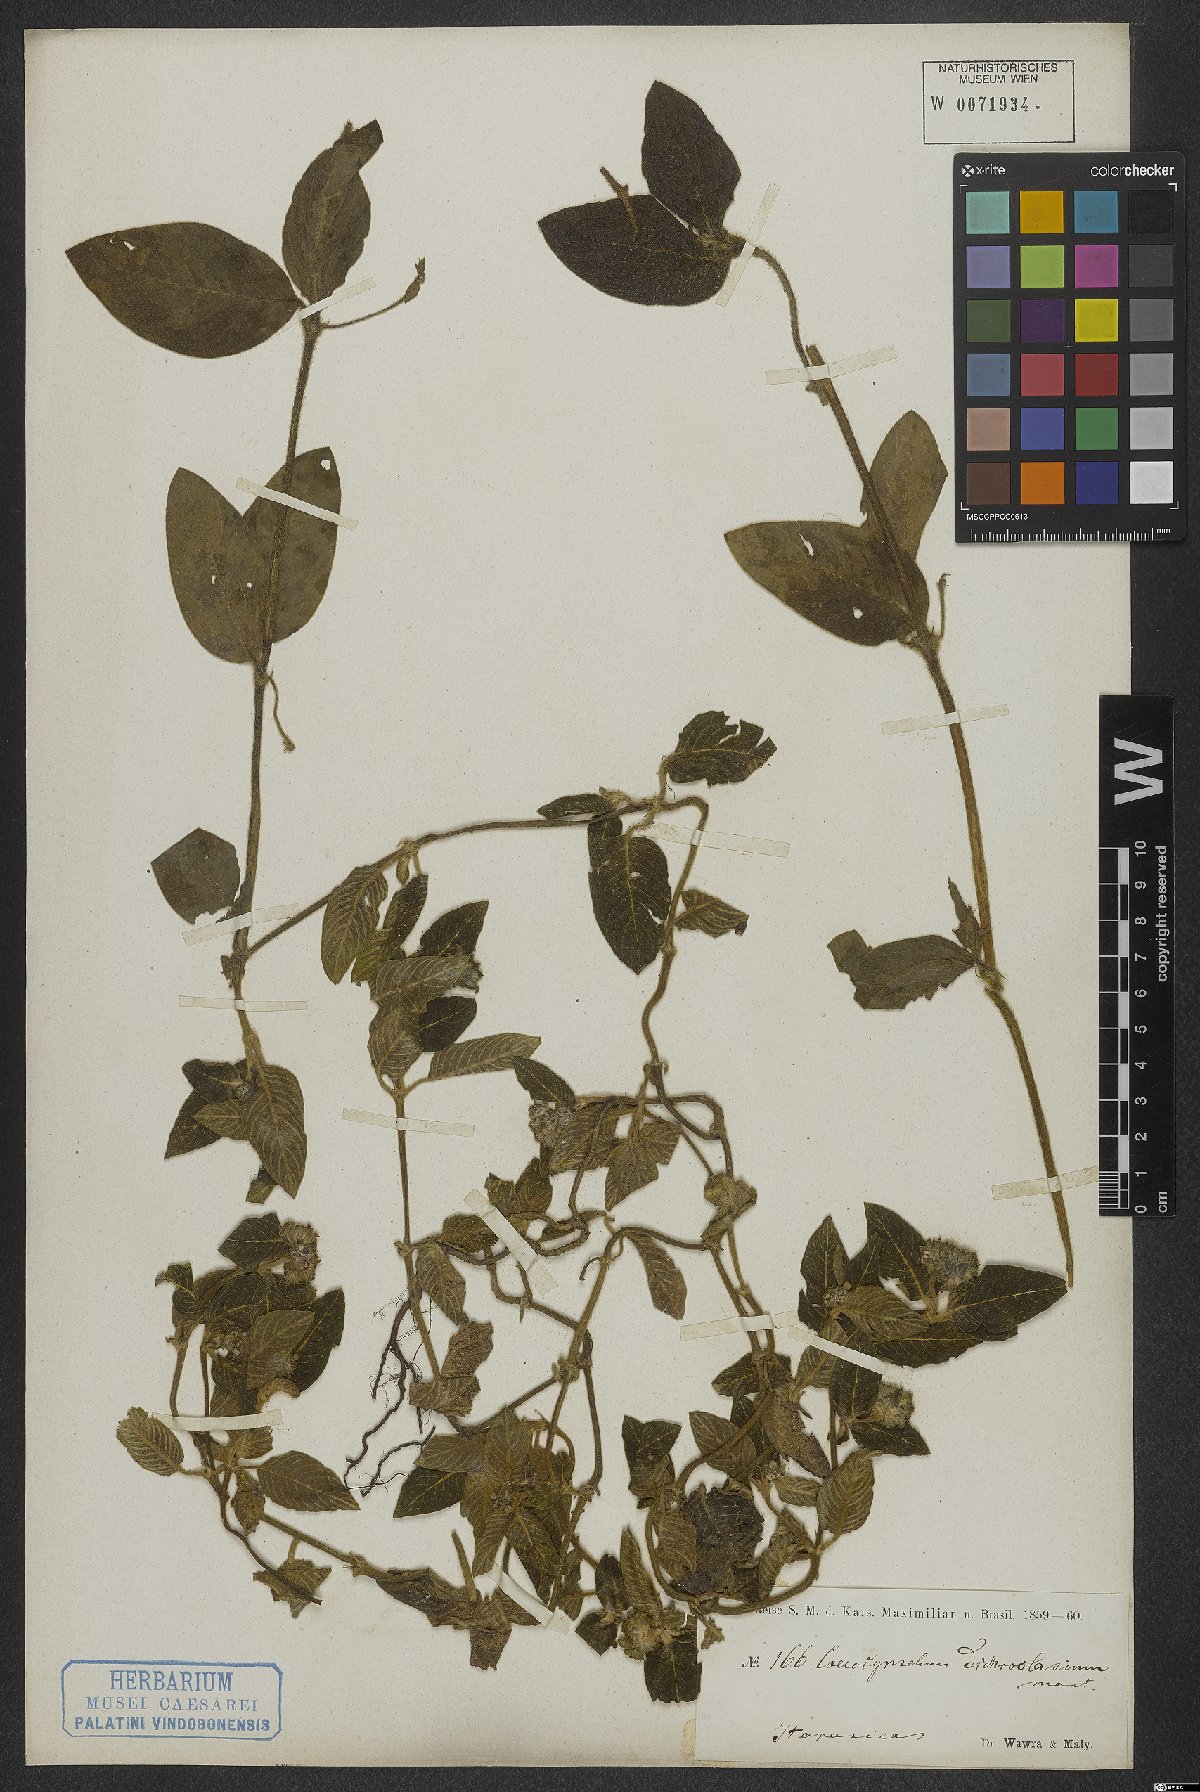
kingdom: Plantae
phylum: Tracheophyta
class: Magnoliopsida
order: Gentianales
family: Rubiaceae
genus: Coccocypselum
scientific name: Coccocypselum lanceolatum
